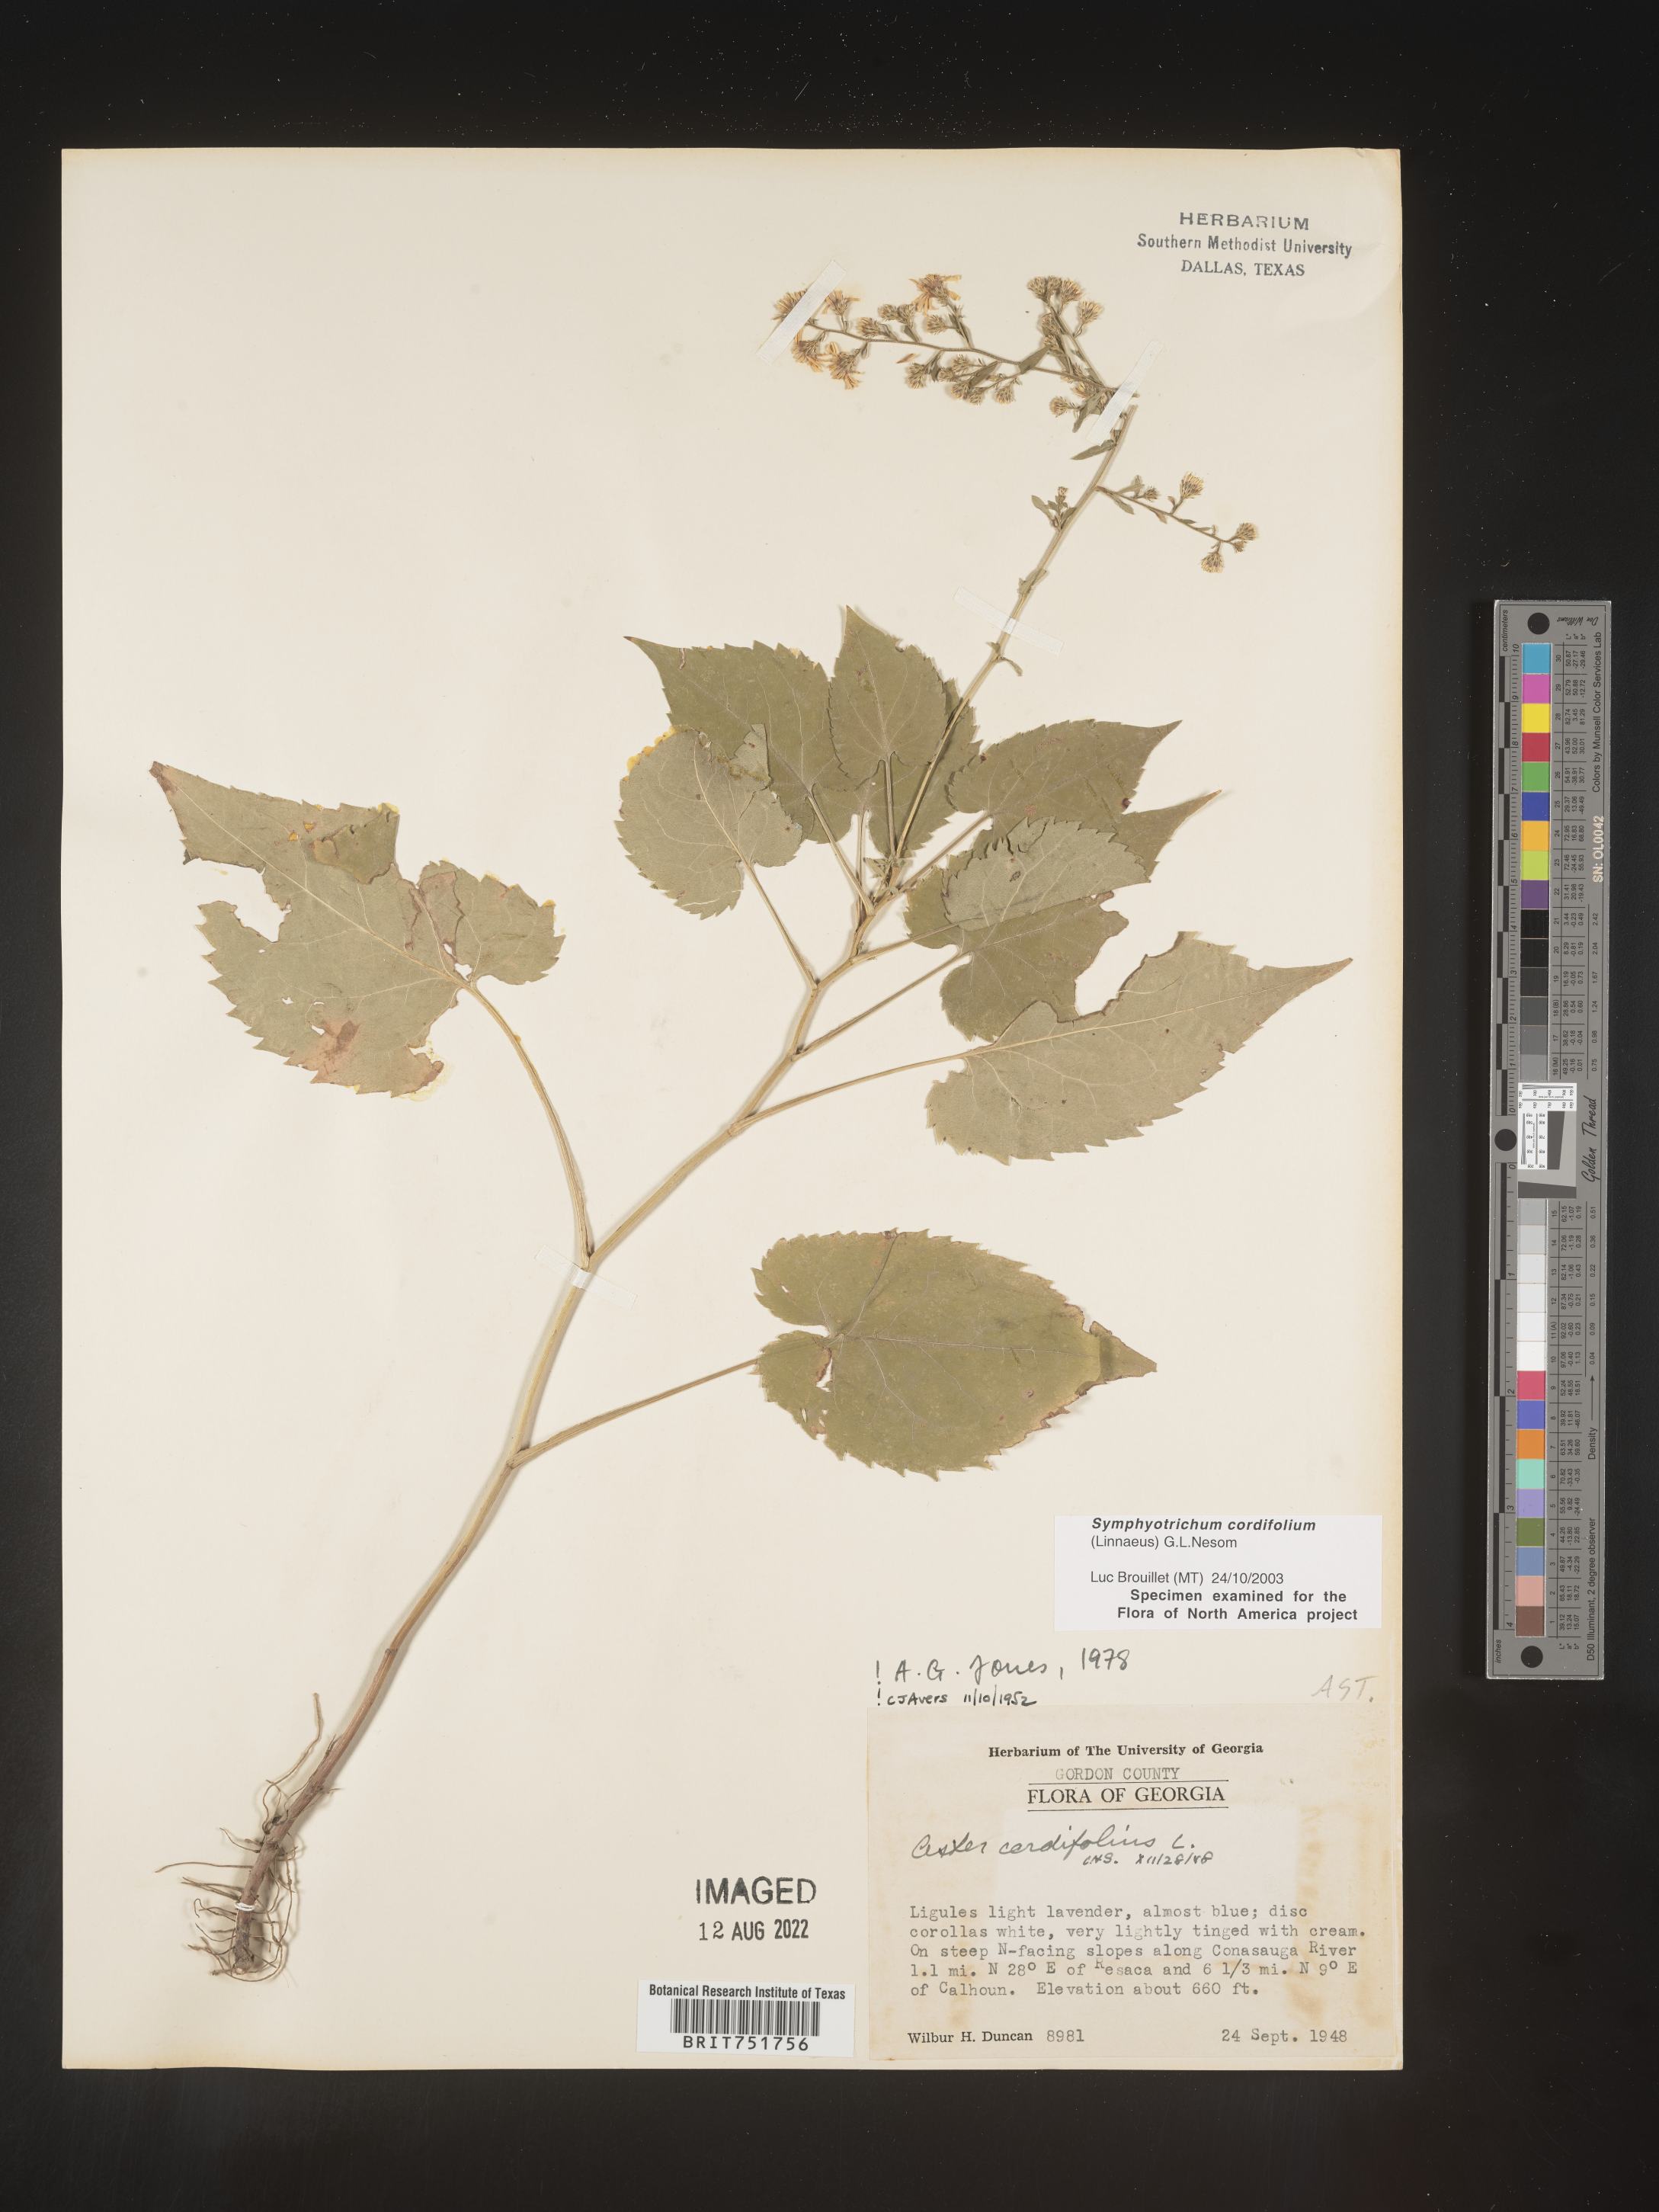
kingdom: Plantae
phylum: Tracheophyta
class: Magnoliopsida
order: Asterales
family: Asteraceae
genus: Symphyotrichum
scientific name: Symphyotrichum cordifolium
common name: Beeweed
